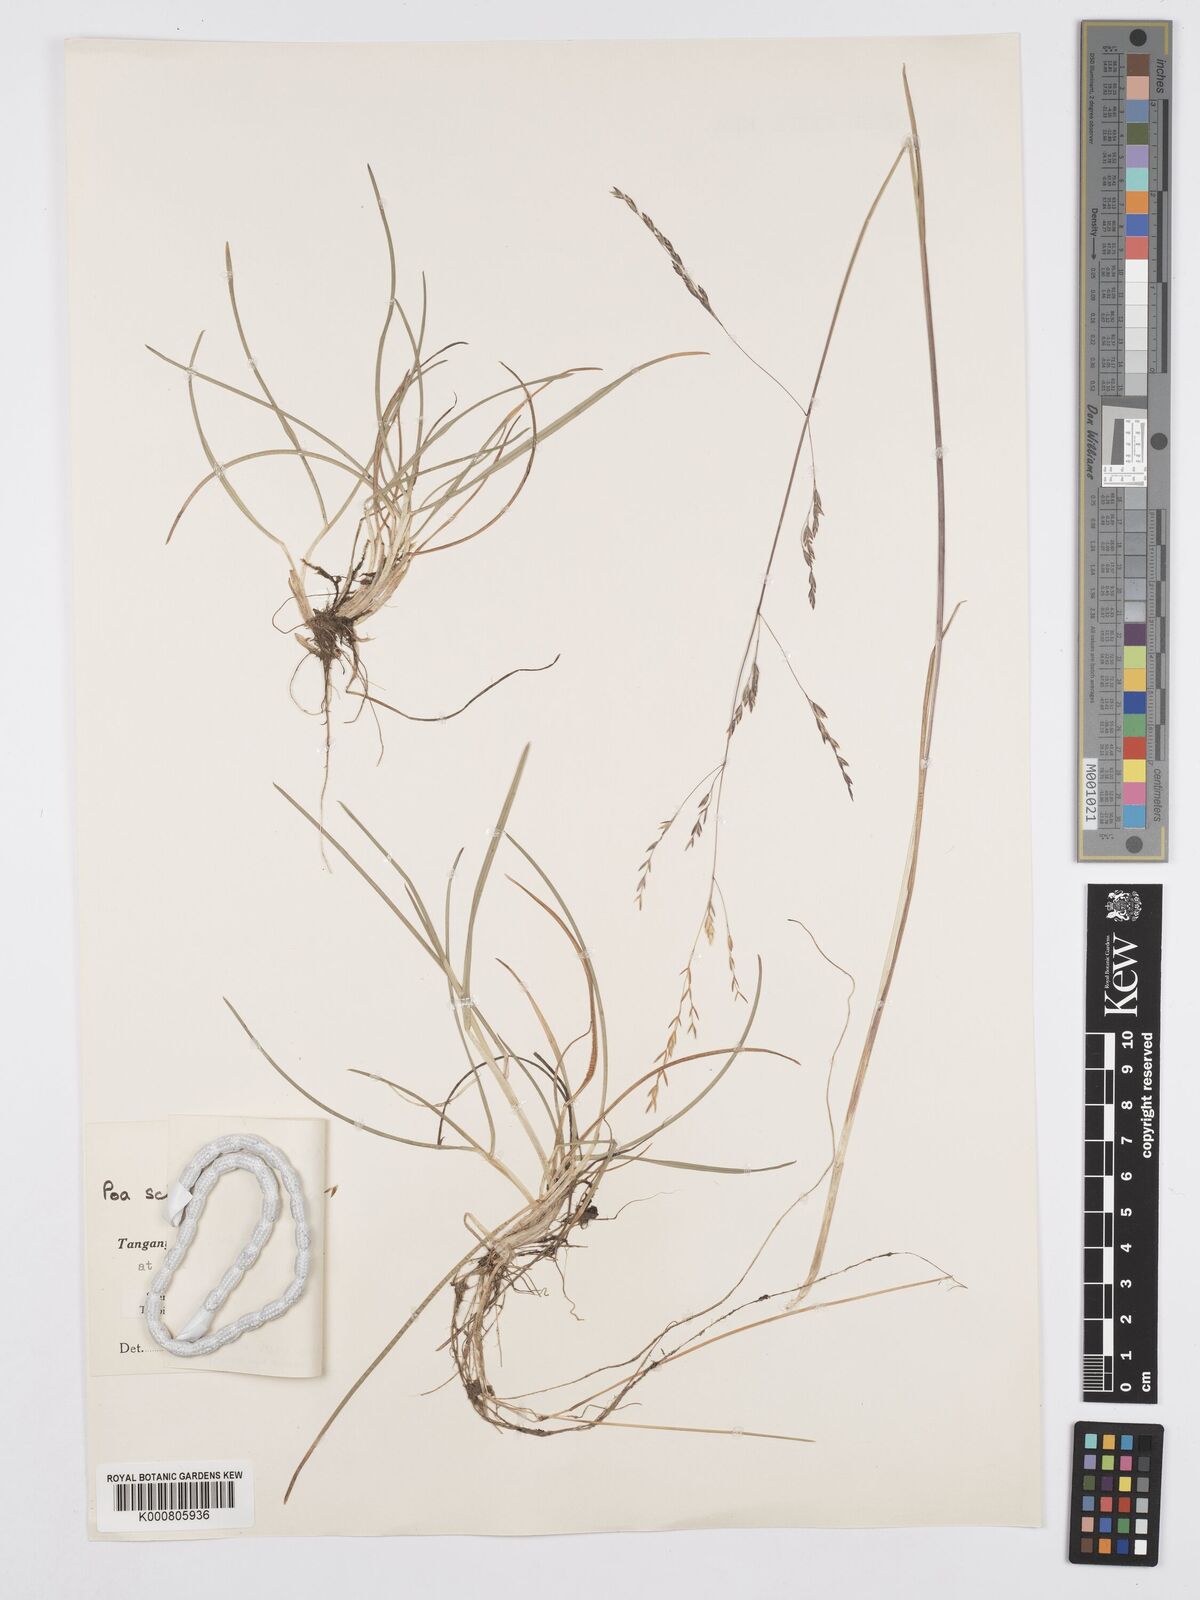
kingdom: Plantae
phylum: Tracheophyta
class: Liliopsida
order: Poales
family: Poaceae
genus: Poa
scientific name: Poa schimperiana
